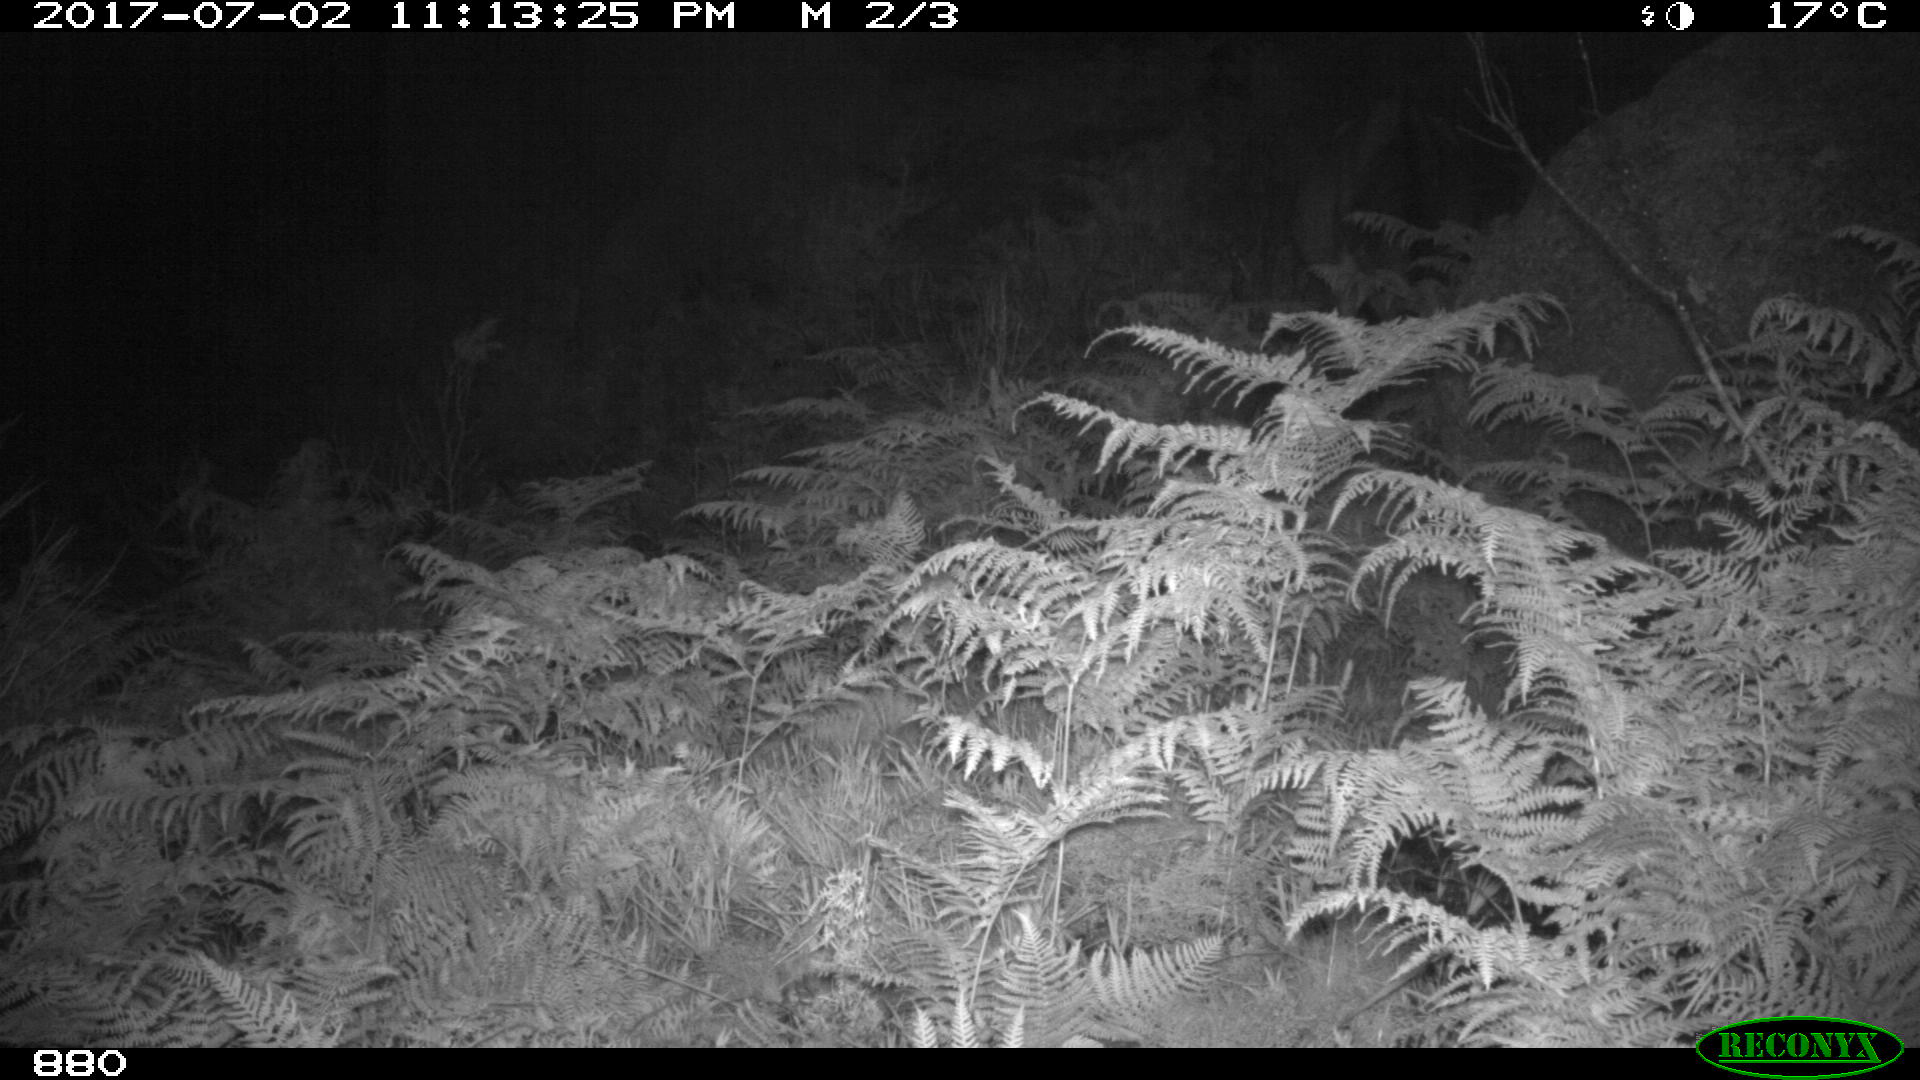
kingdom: Animalia
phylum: Chordata
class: Mammalia
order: Perissodactyla
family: Equidae
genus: Equus
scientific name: Equus caballus
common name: Horse
